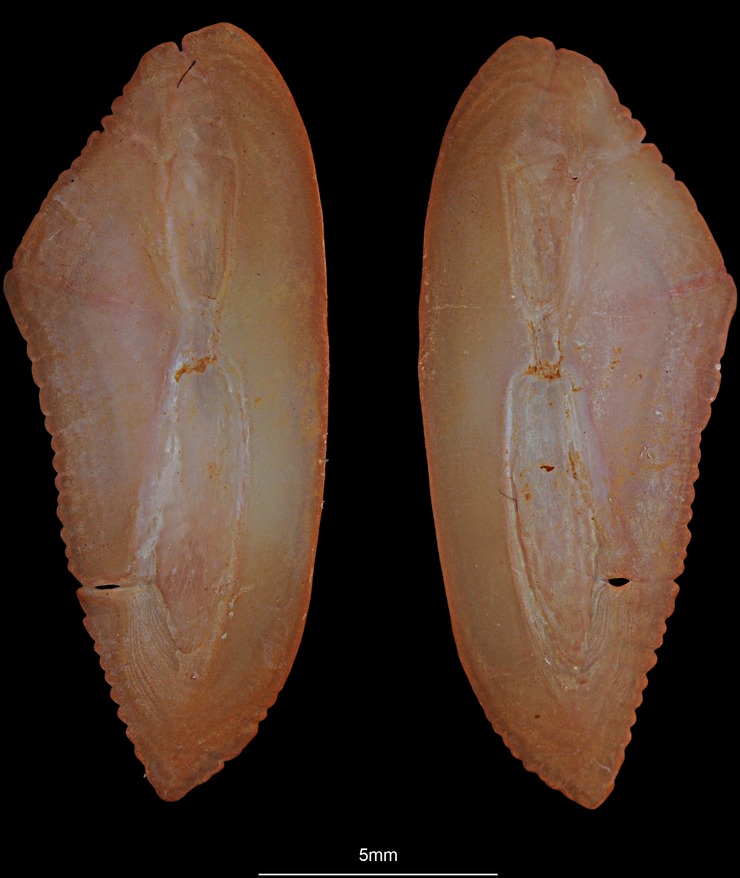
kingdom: Animalia
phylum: Chordata
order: Gadiformes
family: Gadidae
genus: Micromesistius
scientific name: Micromesistius poutassou
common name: Blue whiting
